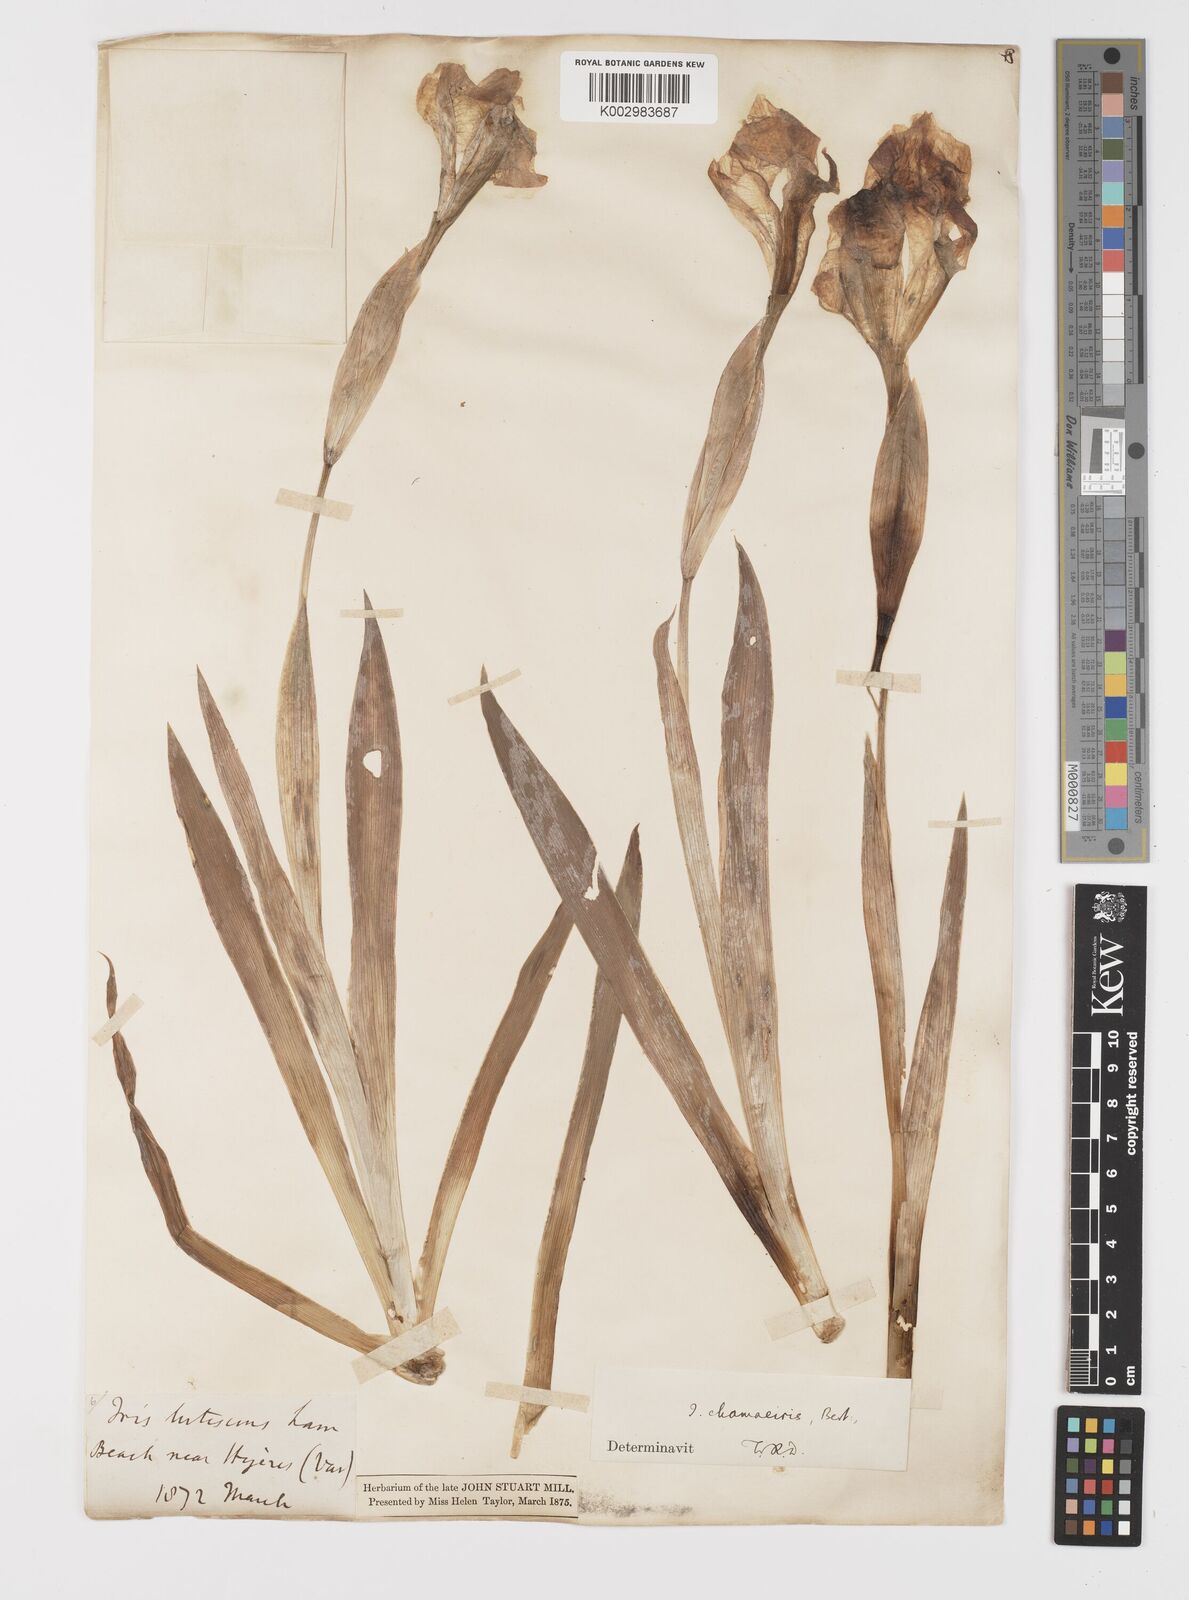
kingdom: Plantae
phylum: Tracheophyta
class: Liliopsida
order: Asparagales
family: Iridaceae
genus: Iris
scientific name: Iris lutescens
